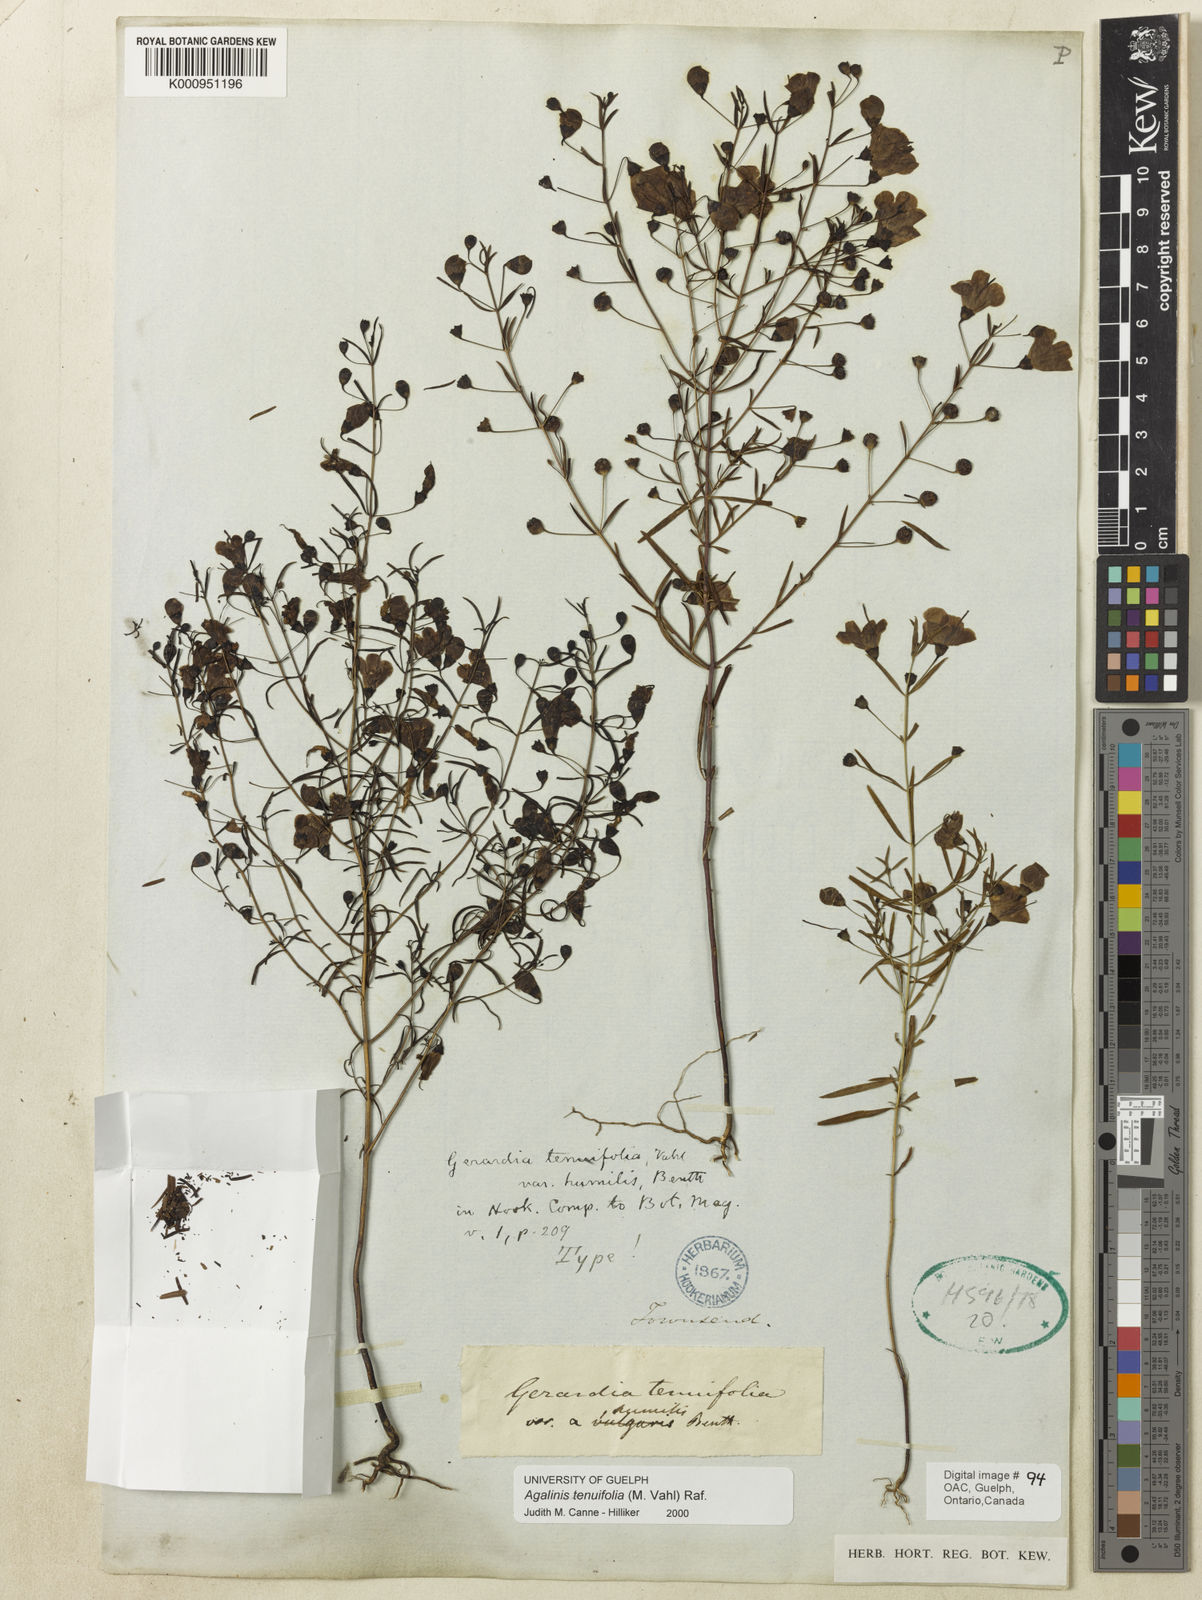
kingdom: Plantae
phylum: Tracheophyta
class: Magnoliopsida
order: Lamiales
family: Orobanchaceae
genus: Agalinis
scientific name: Agalinis tenuifolia
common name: Slender agalinis
